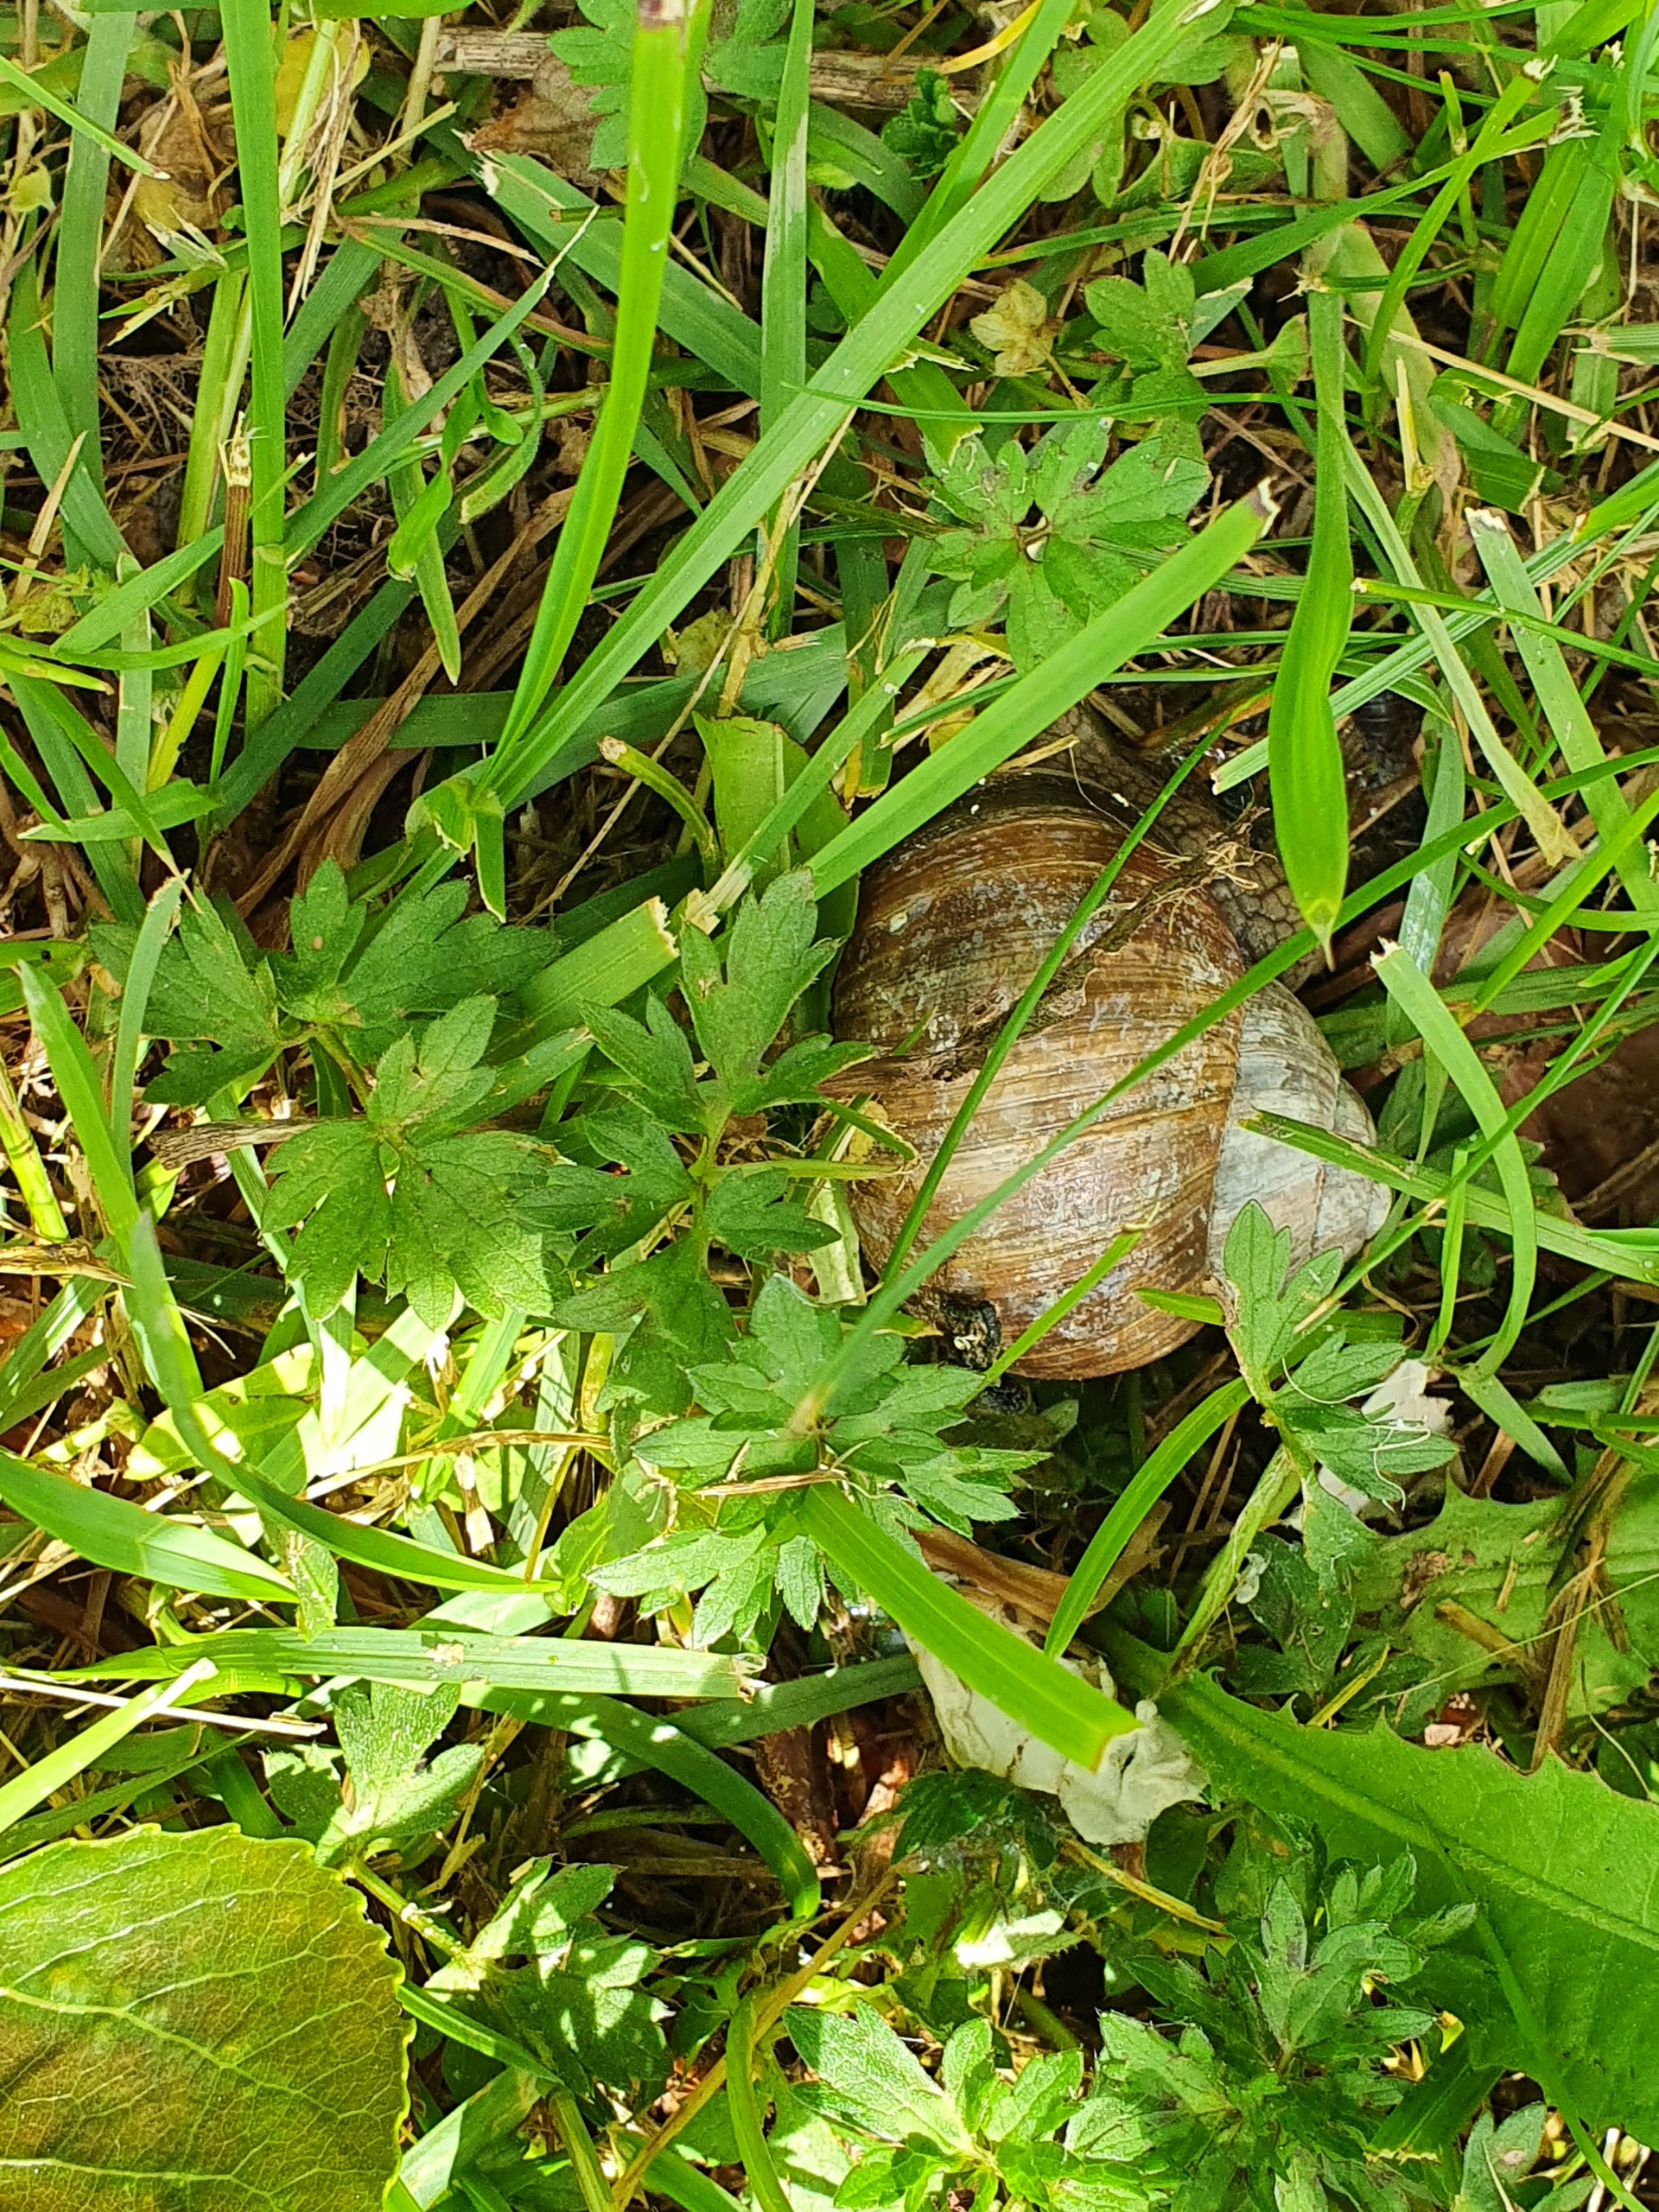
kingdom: Animalia
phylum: Mollusca
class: Gastropoda
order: Stylommatophora
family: Helicidae
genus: Helix
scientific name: Helix pomatia
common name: Vinbjergsnegl
